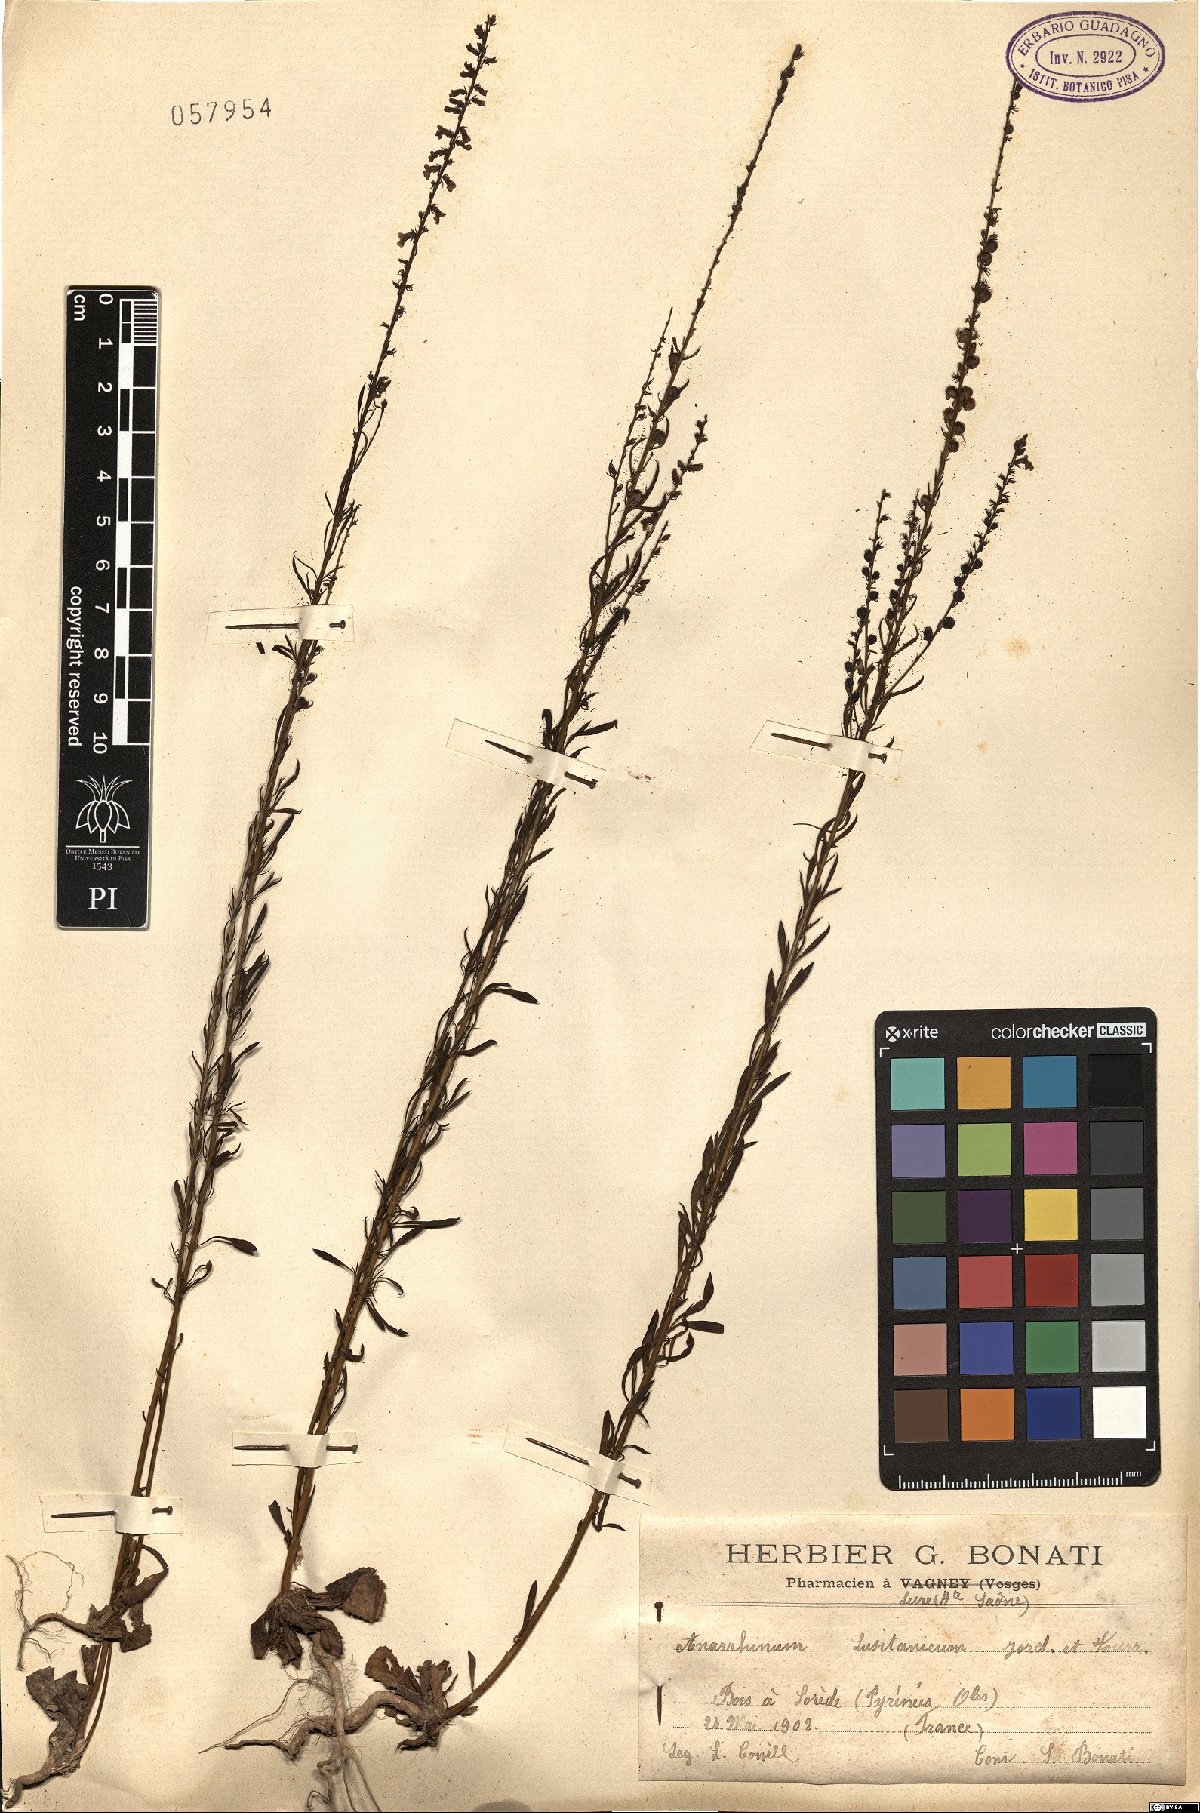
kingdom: Plantae
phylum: Tracheophyta
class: Magnoliopsida
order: Lamiales
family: Plantaginaceae
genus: Anarrhinum
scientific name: Anarrhinum bellidifolium
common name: Daisy-leaved toadflax
